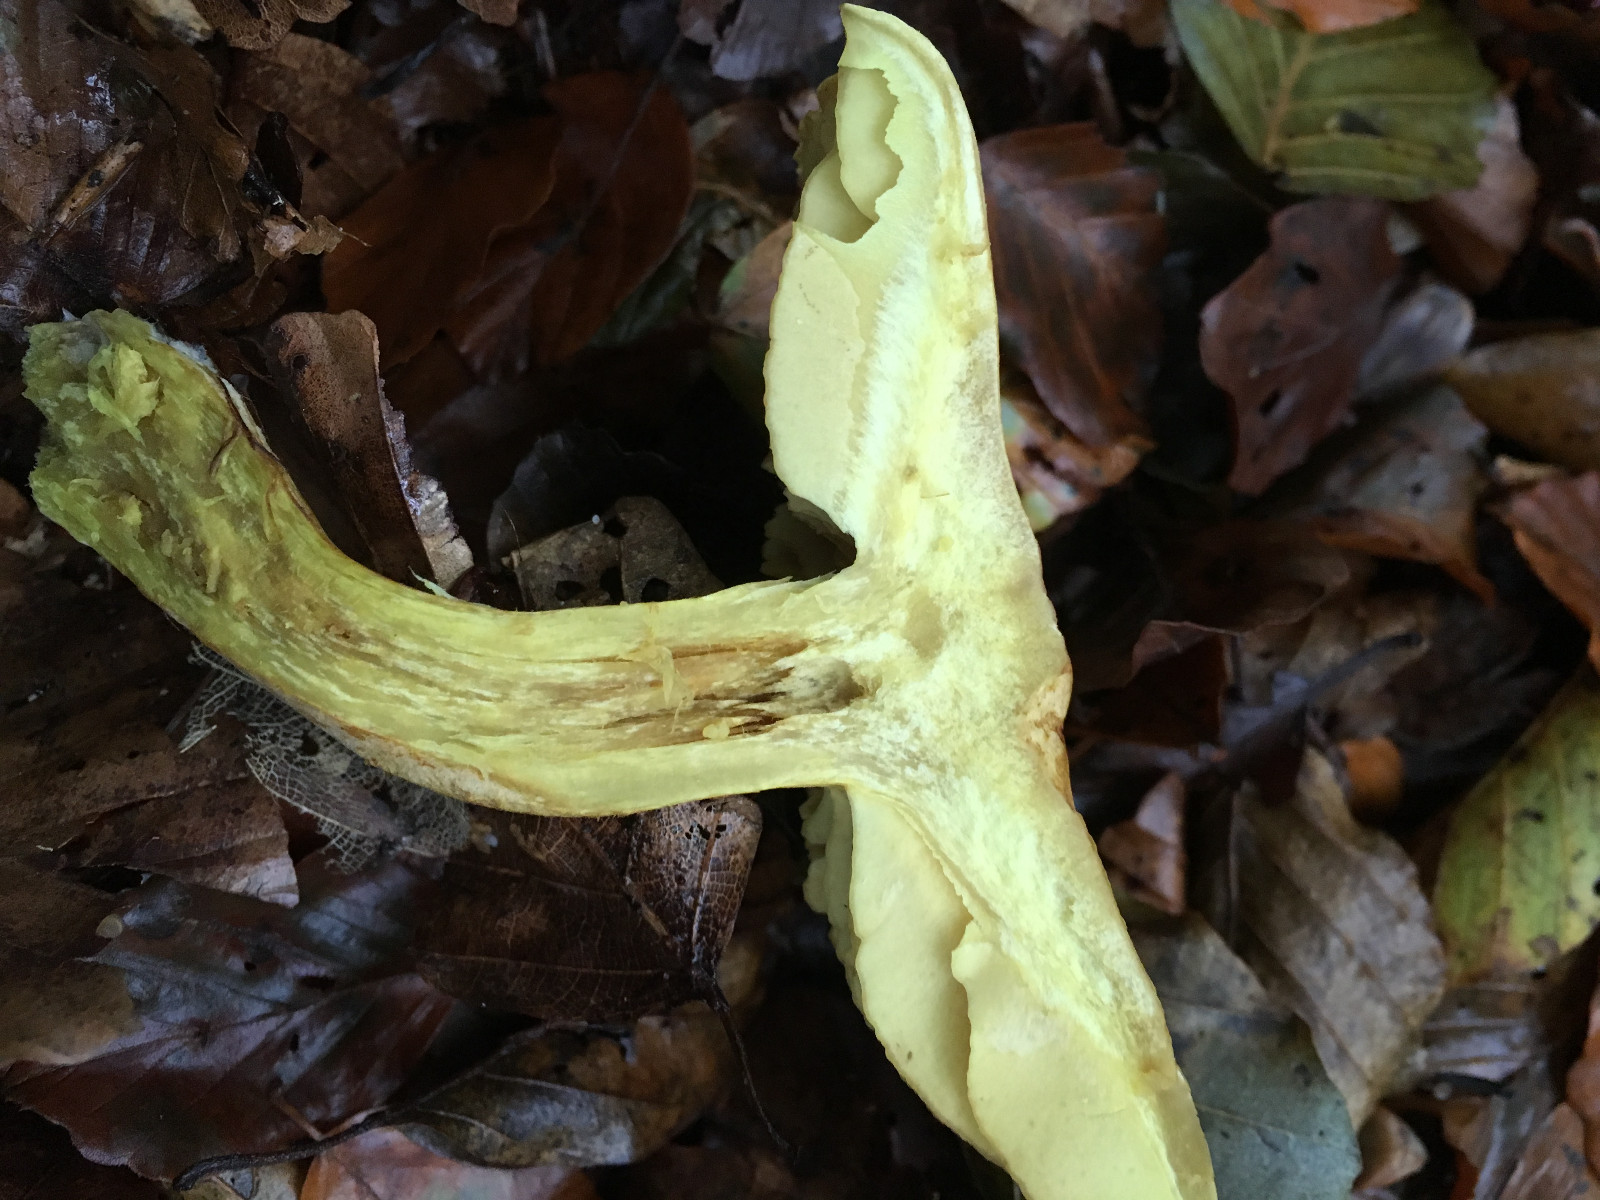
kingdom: Fungi
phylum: Basidiomycota
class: Agaricomycetes
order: Agaricales
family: Tricholomataceae
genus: Tricholoma
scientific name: Tricholoma sulphureum
